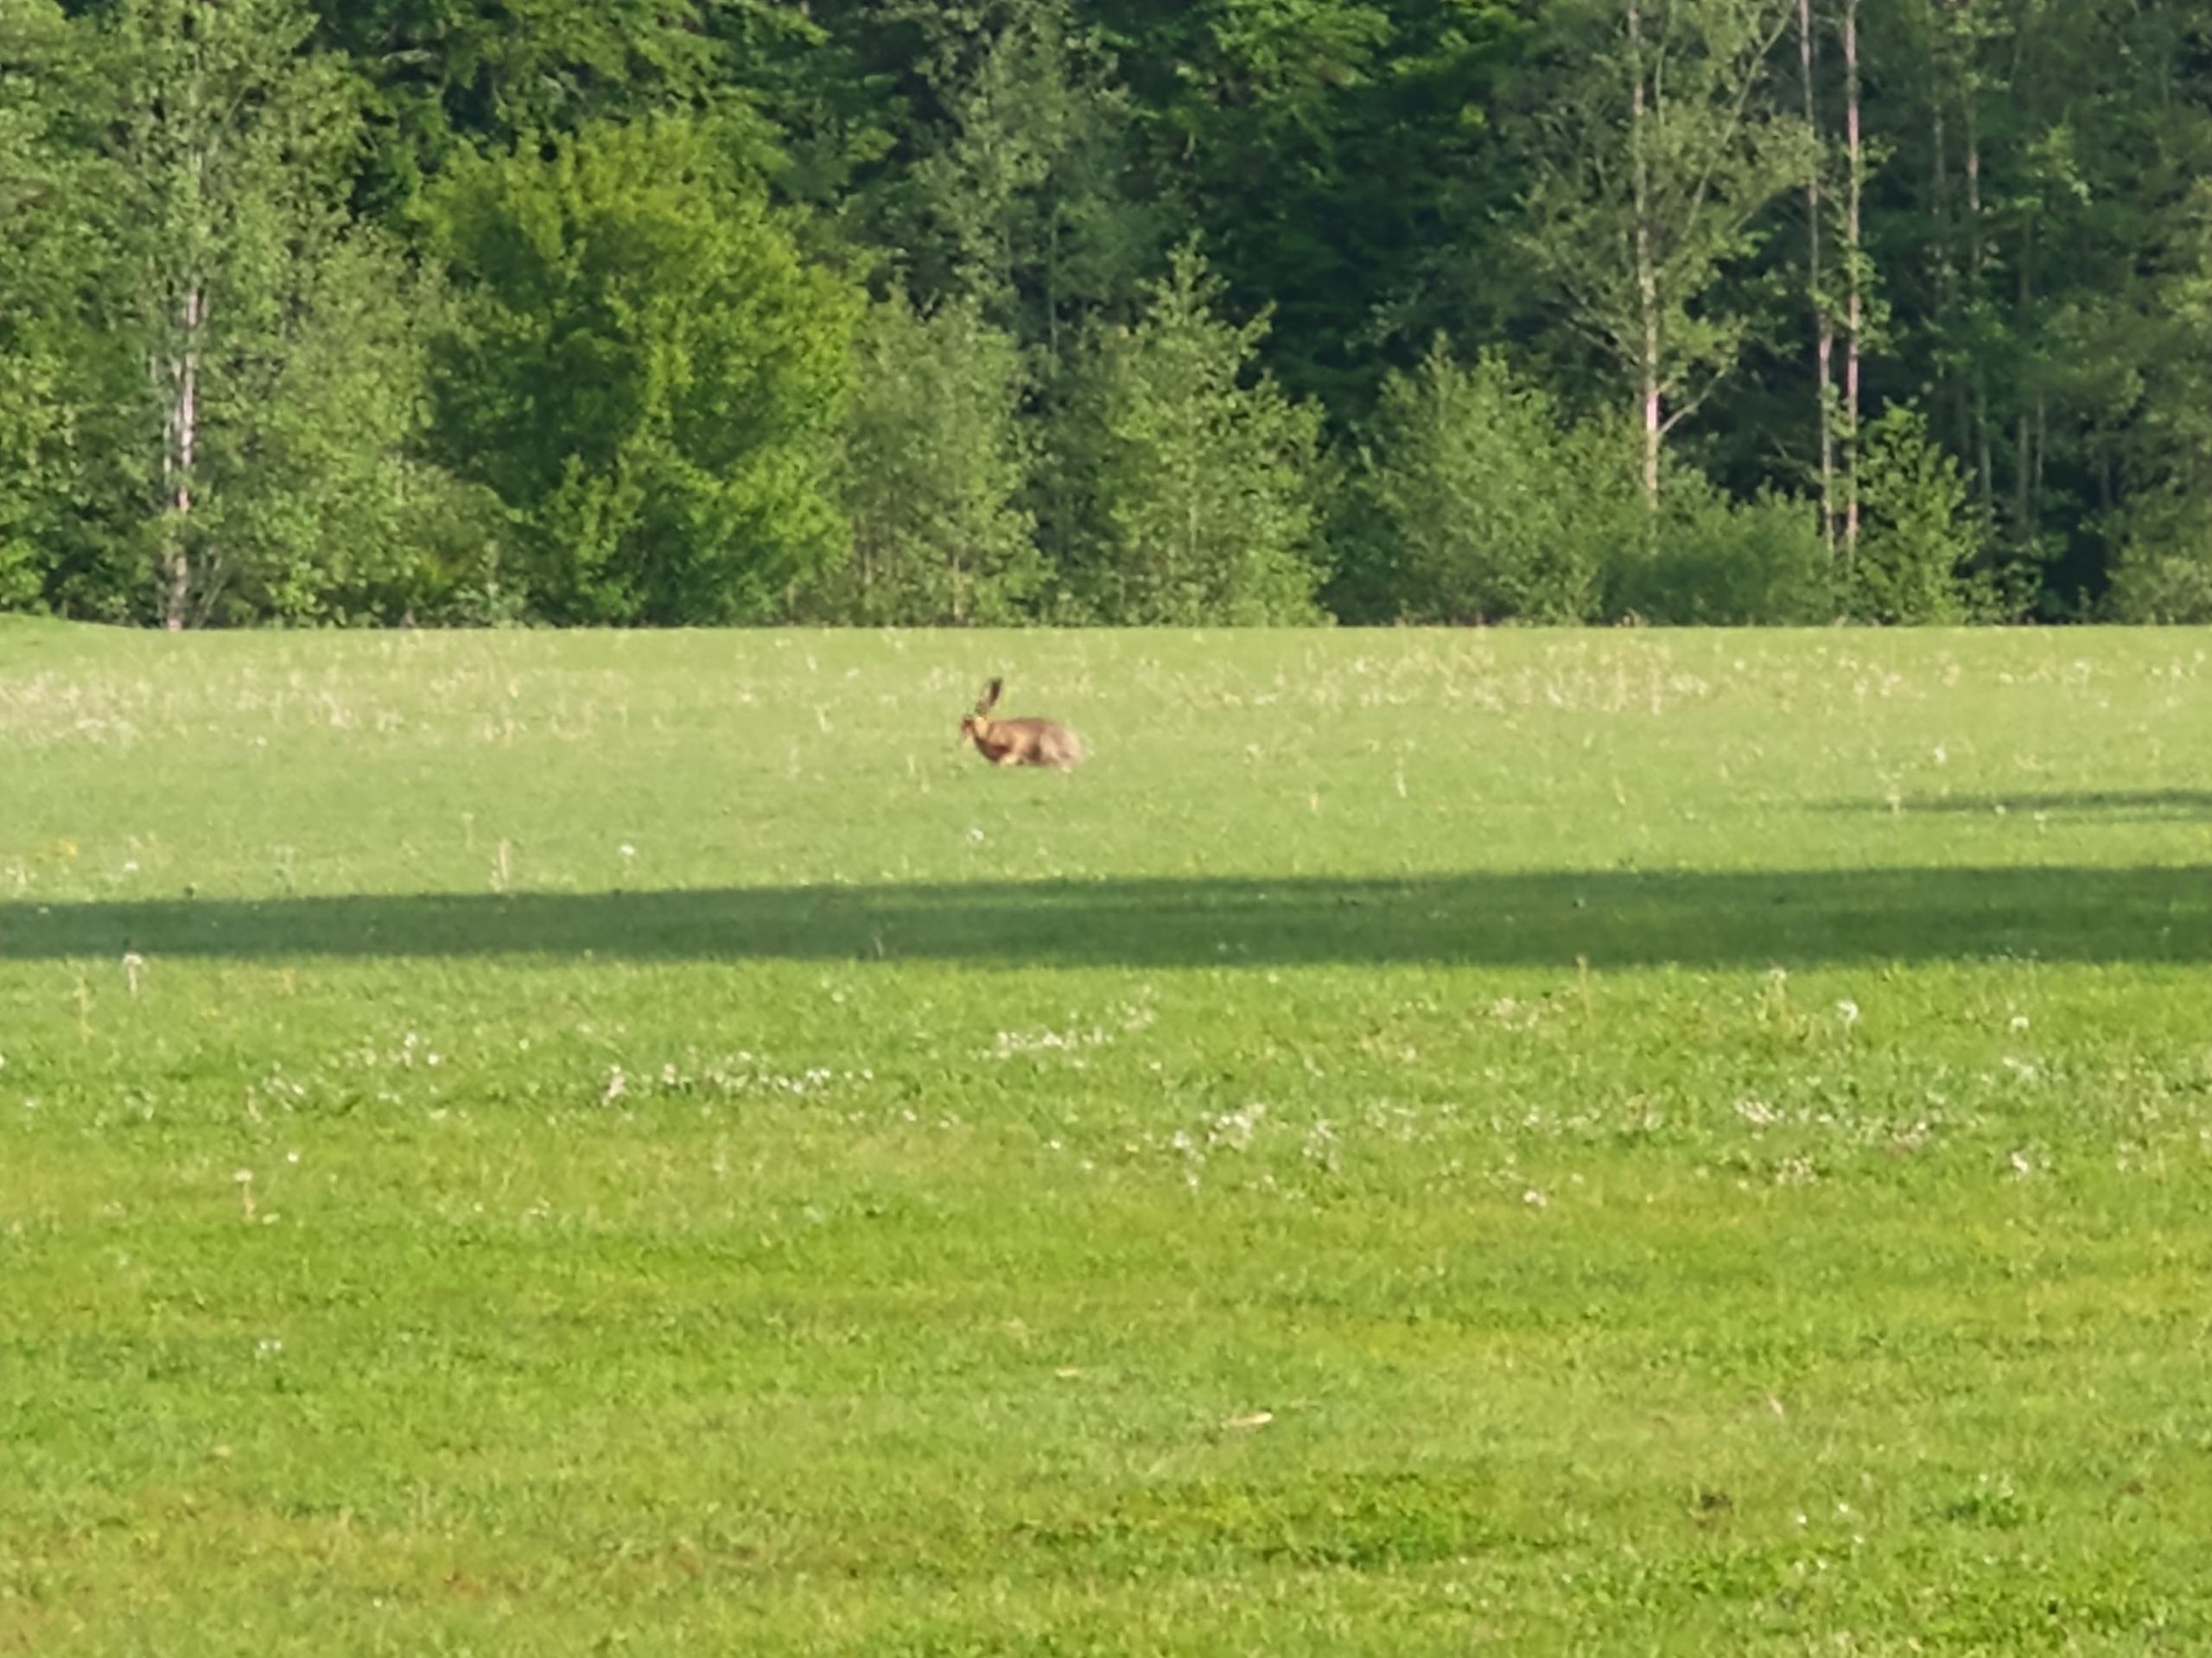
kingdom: Animalia
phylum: Chordata
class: Mammalia
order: Lagomorpha
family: Leporidae
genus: Lepus
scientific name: Lepus europaeus
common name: Hare
